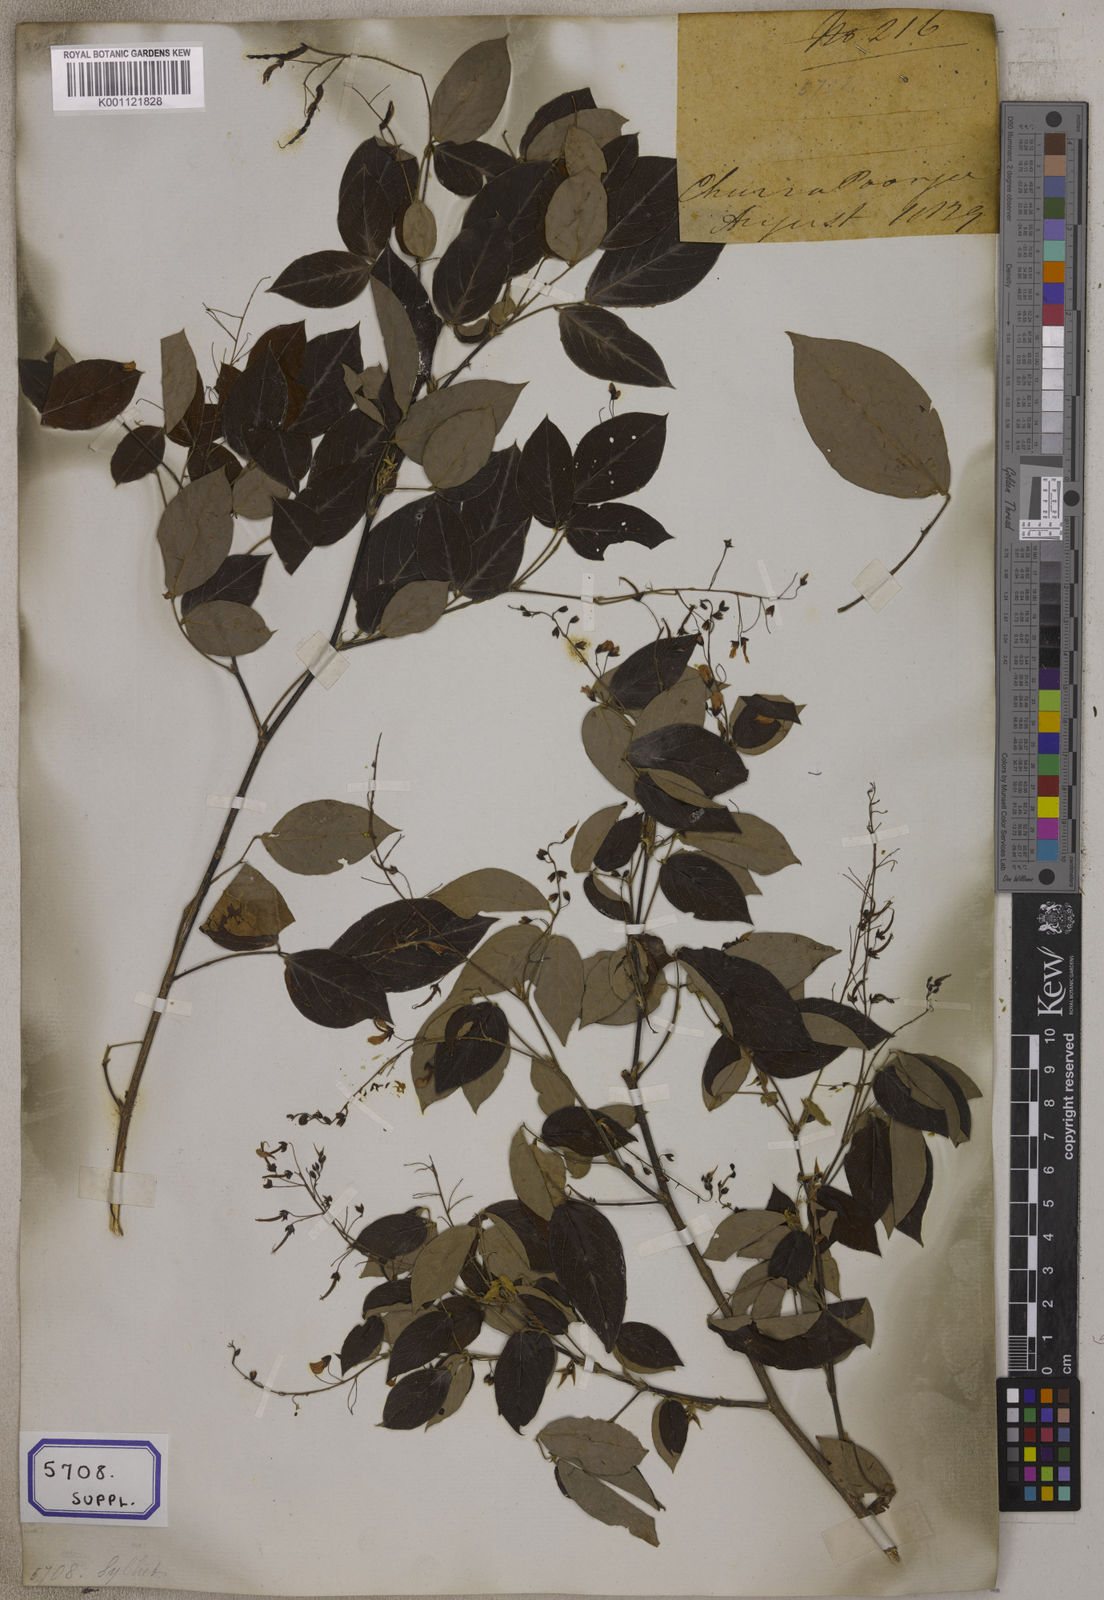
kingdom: Plantae
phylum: Tracheophyta
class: Magnoliopsida
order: Fabales
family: Fabaceae
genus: Desmodium
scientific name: Desmodium
